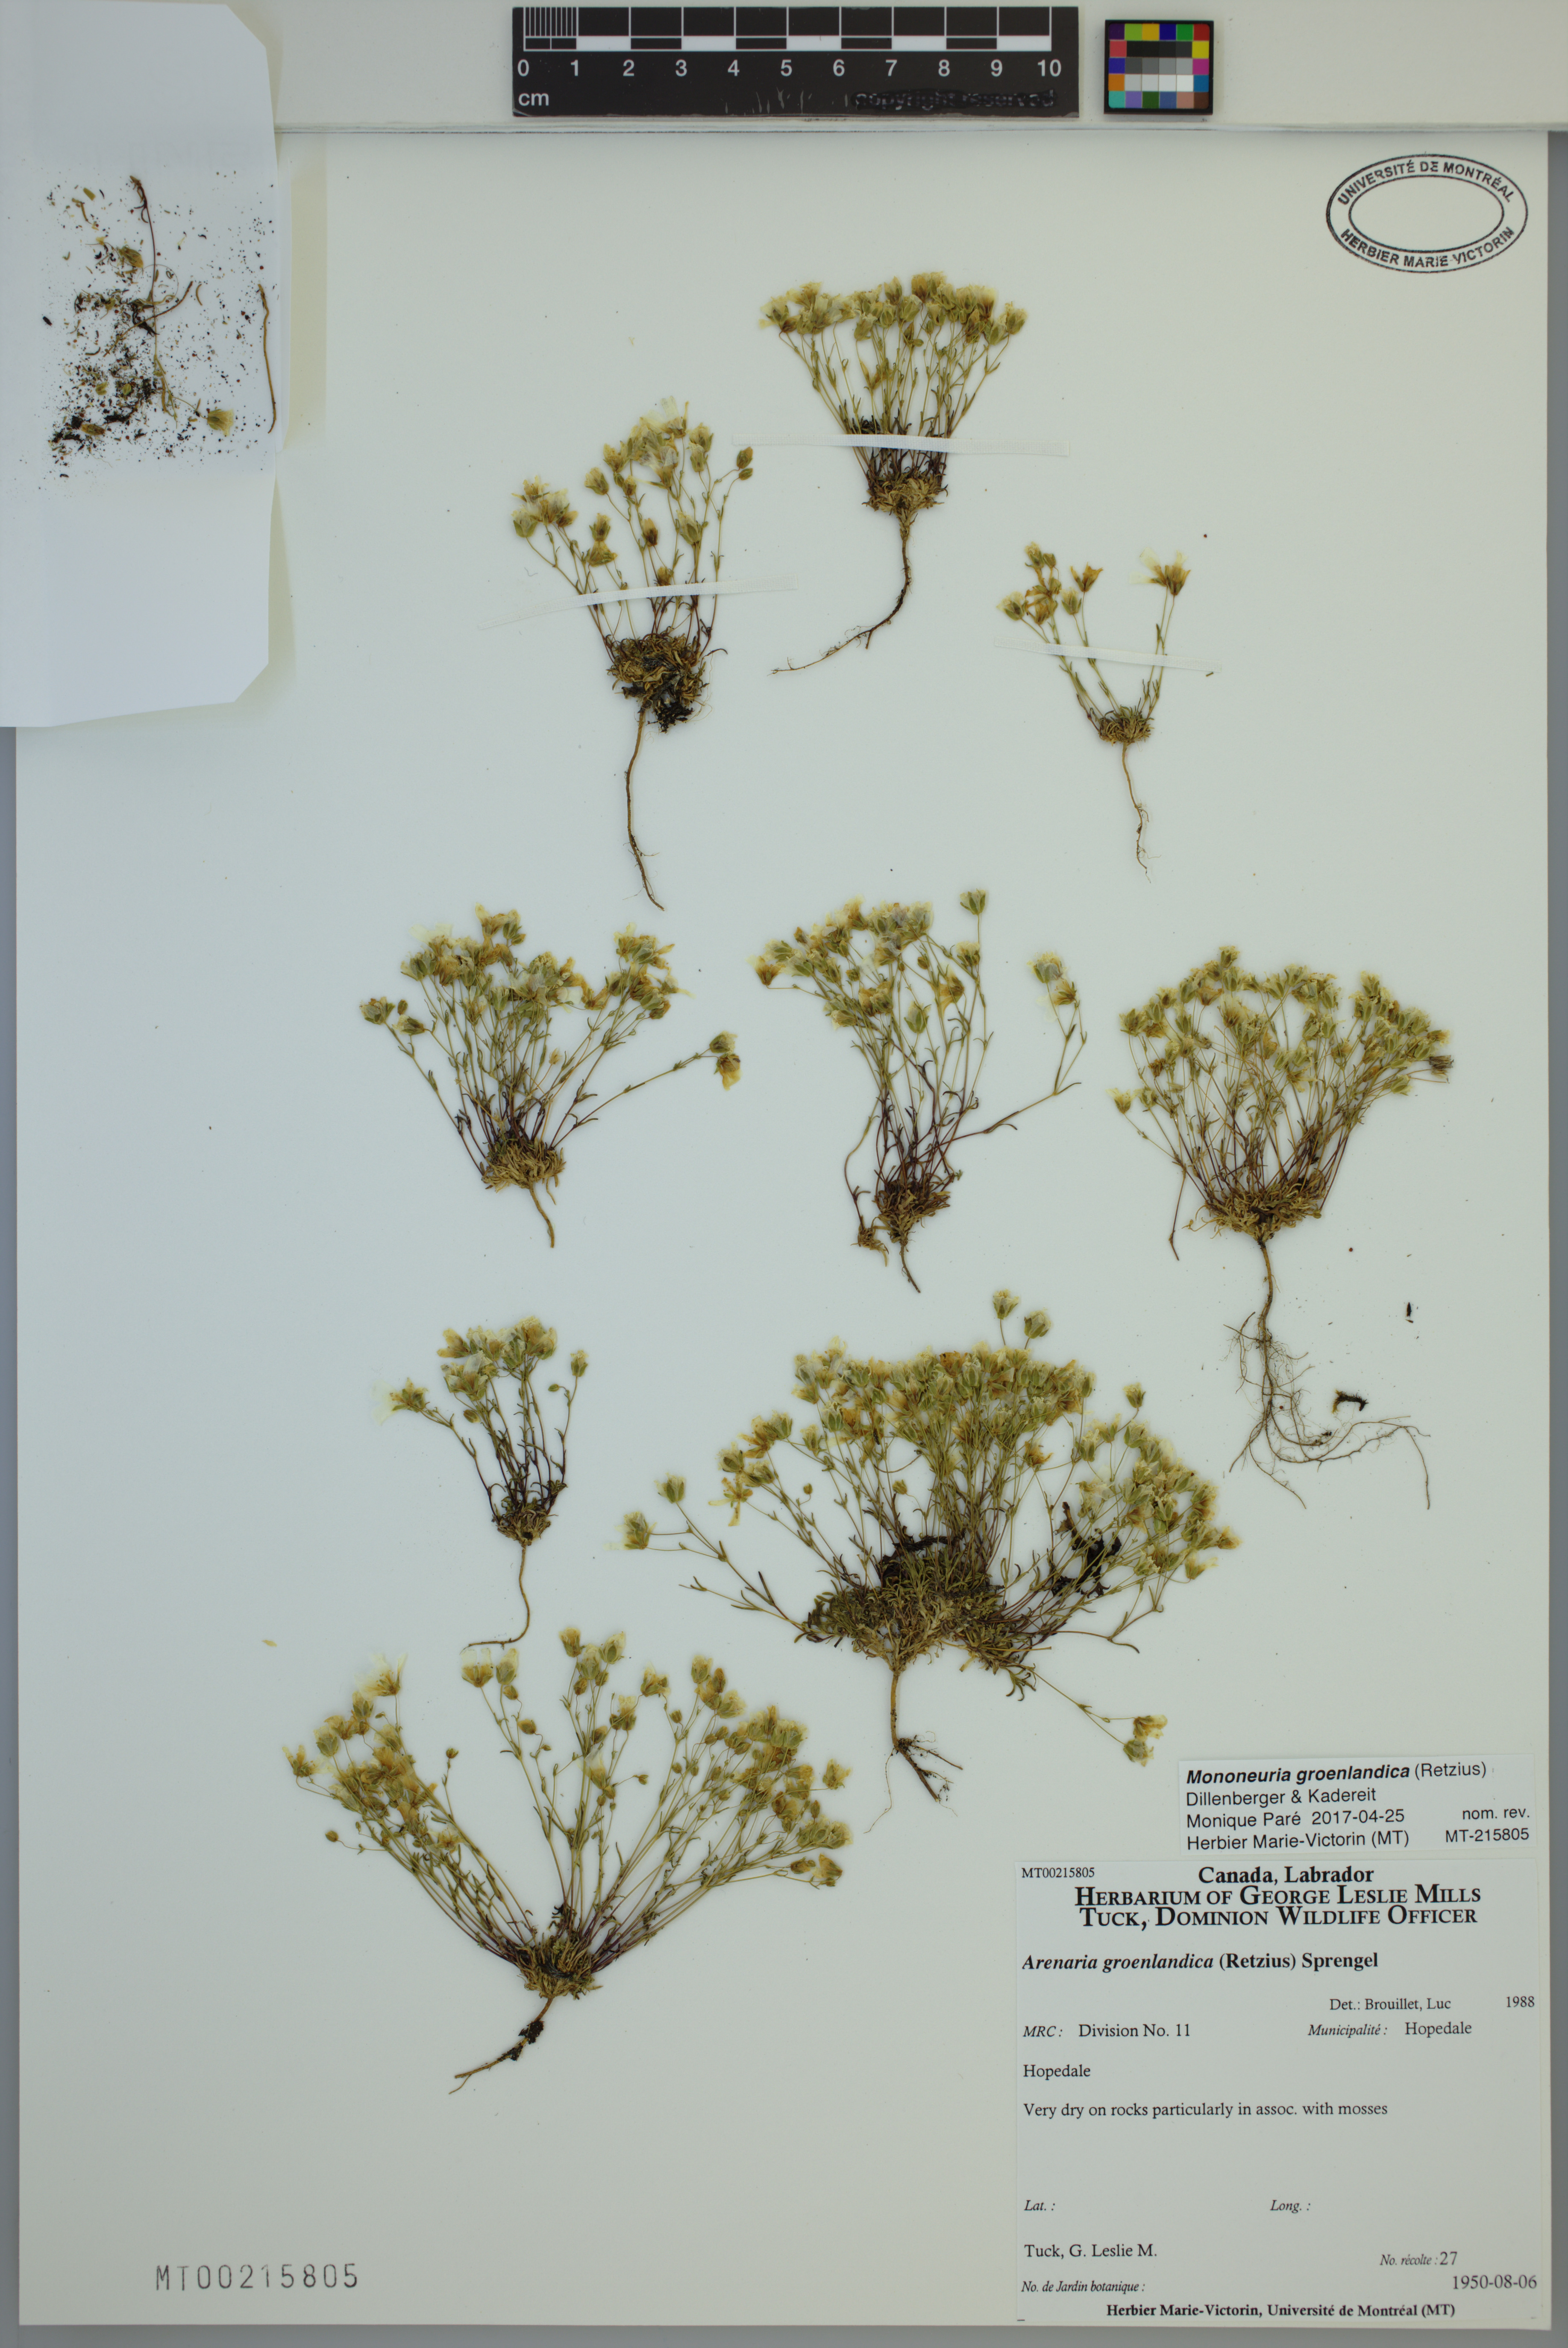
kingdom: Plantae
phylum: Tracheophyta
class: Magnoliopsida
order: Caryophyllales
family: Caryophyllaceae
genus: Geocarpon
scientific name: Geocarpon groenlandicum
